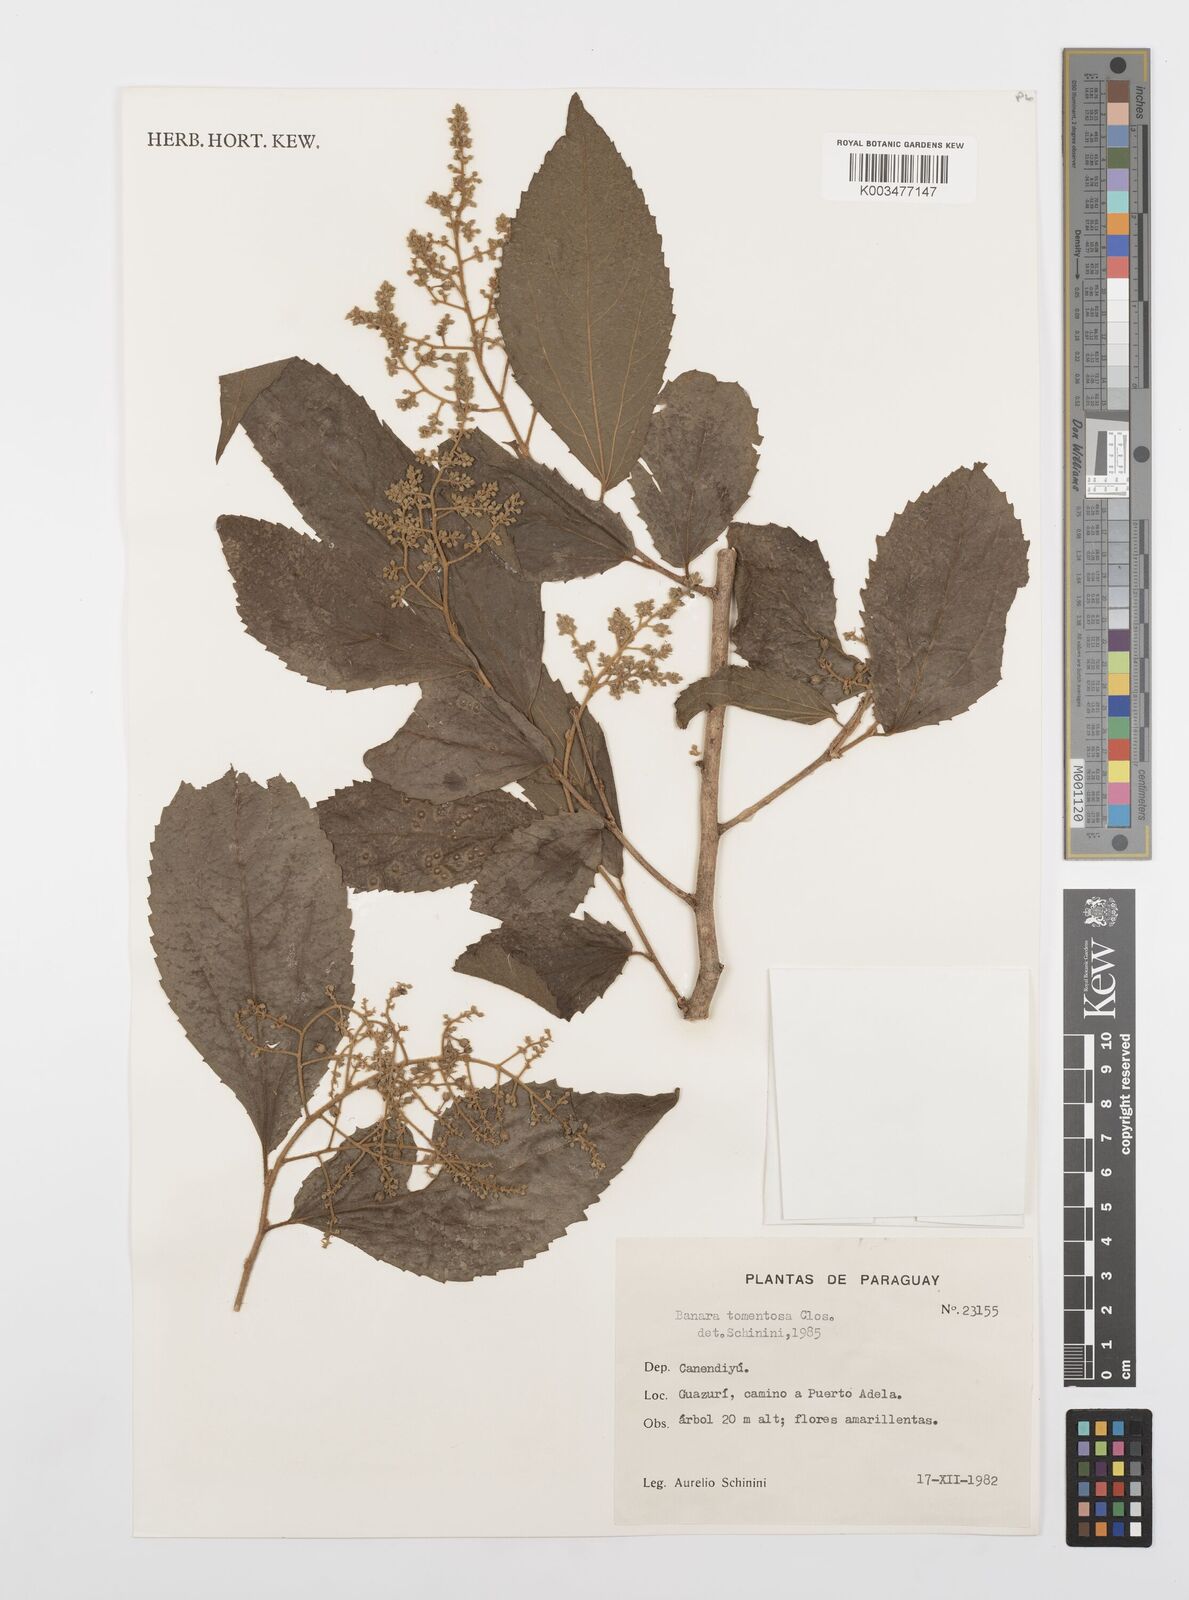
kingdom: Plantae
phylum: Tracheophyta
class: Magnoliopsida
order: Malpighiales
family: Salicaceae
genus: Banara
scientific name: Banara tomentosa
